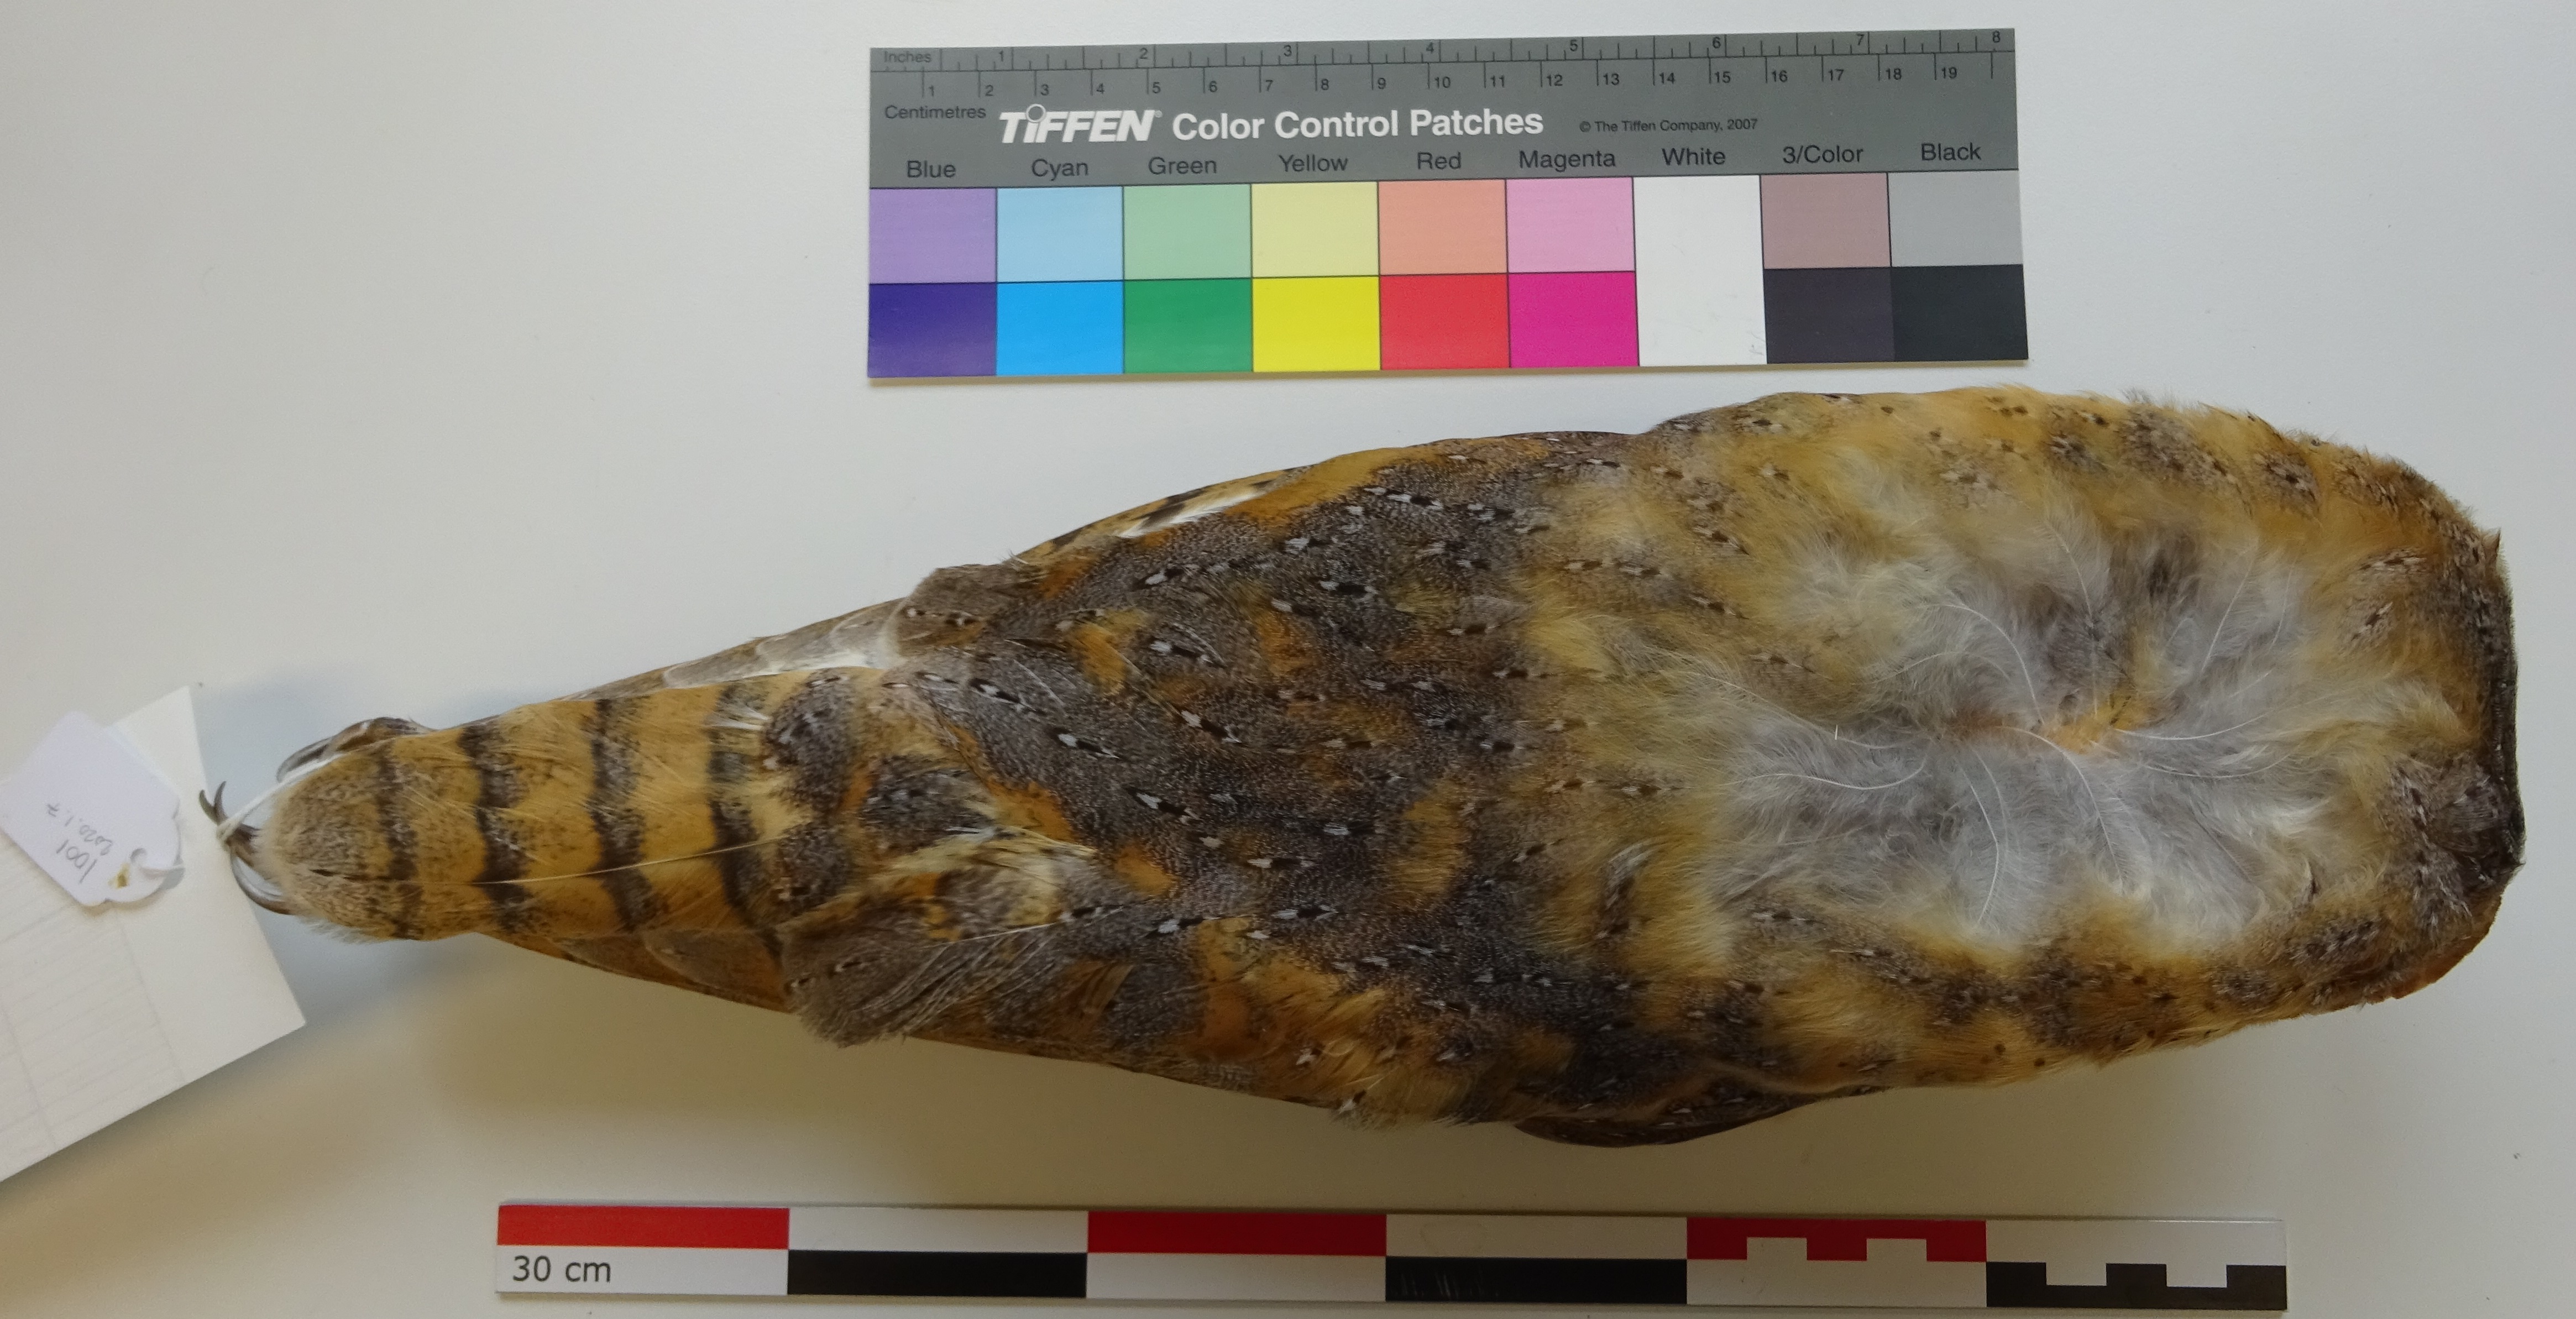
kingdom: Animalia
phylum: Chordata
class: Aves
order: Strigiformes
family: Tytonidae
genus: Tyto
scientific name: Tyto alba
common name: Barn owl
